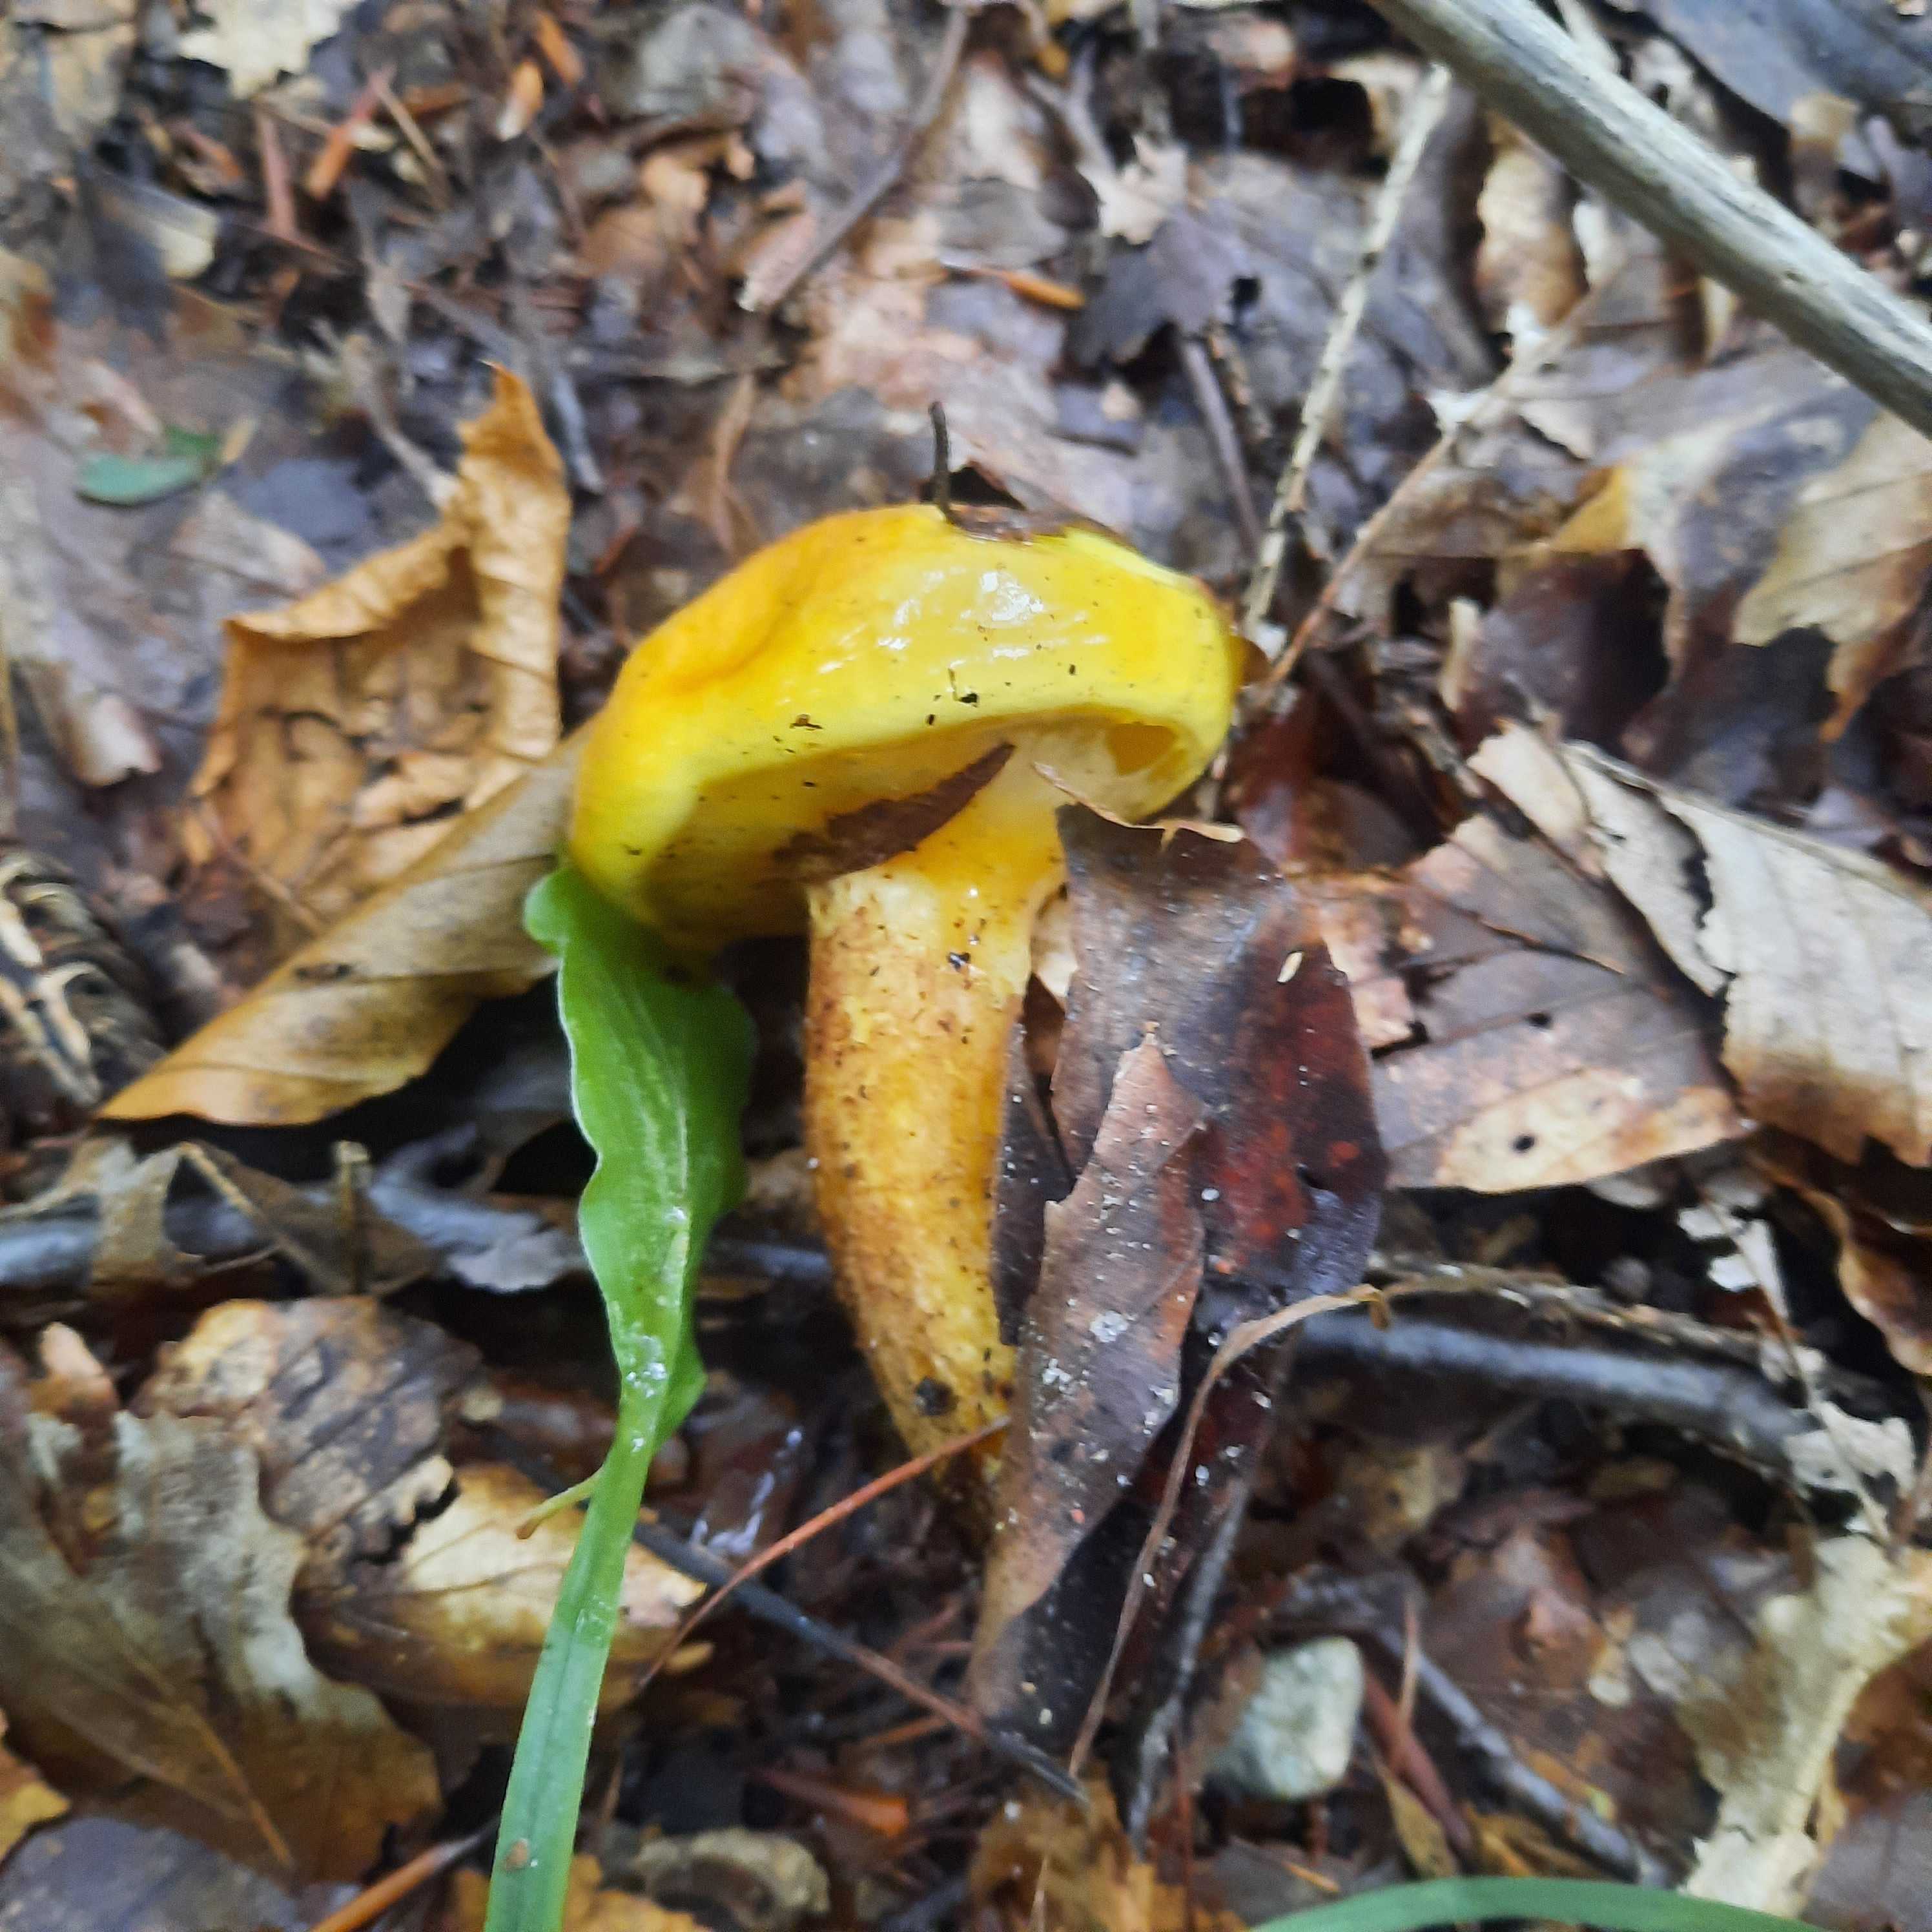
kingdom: Fungi
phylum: Basidiomycota
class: Agaricomycetes
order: Boletales
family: Suillaceae
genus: Suillus
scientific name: Suillus grevillei
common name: lærke-slimrørhat
